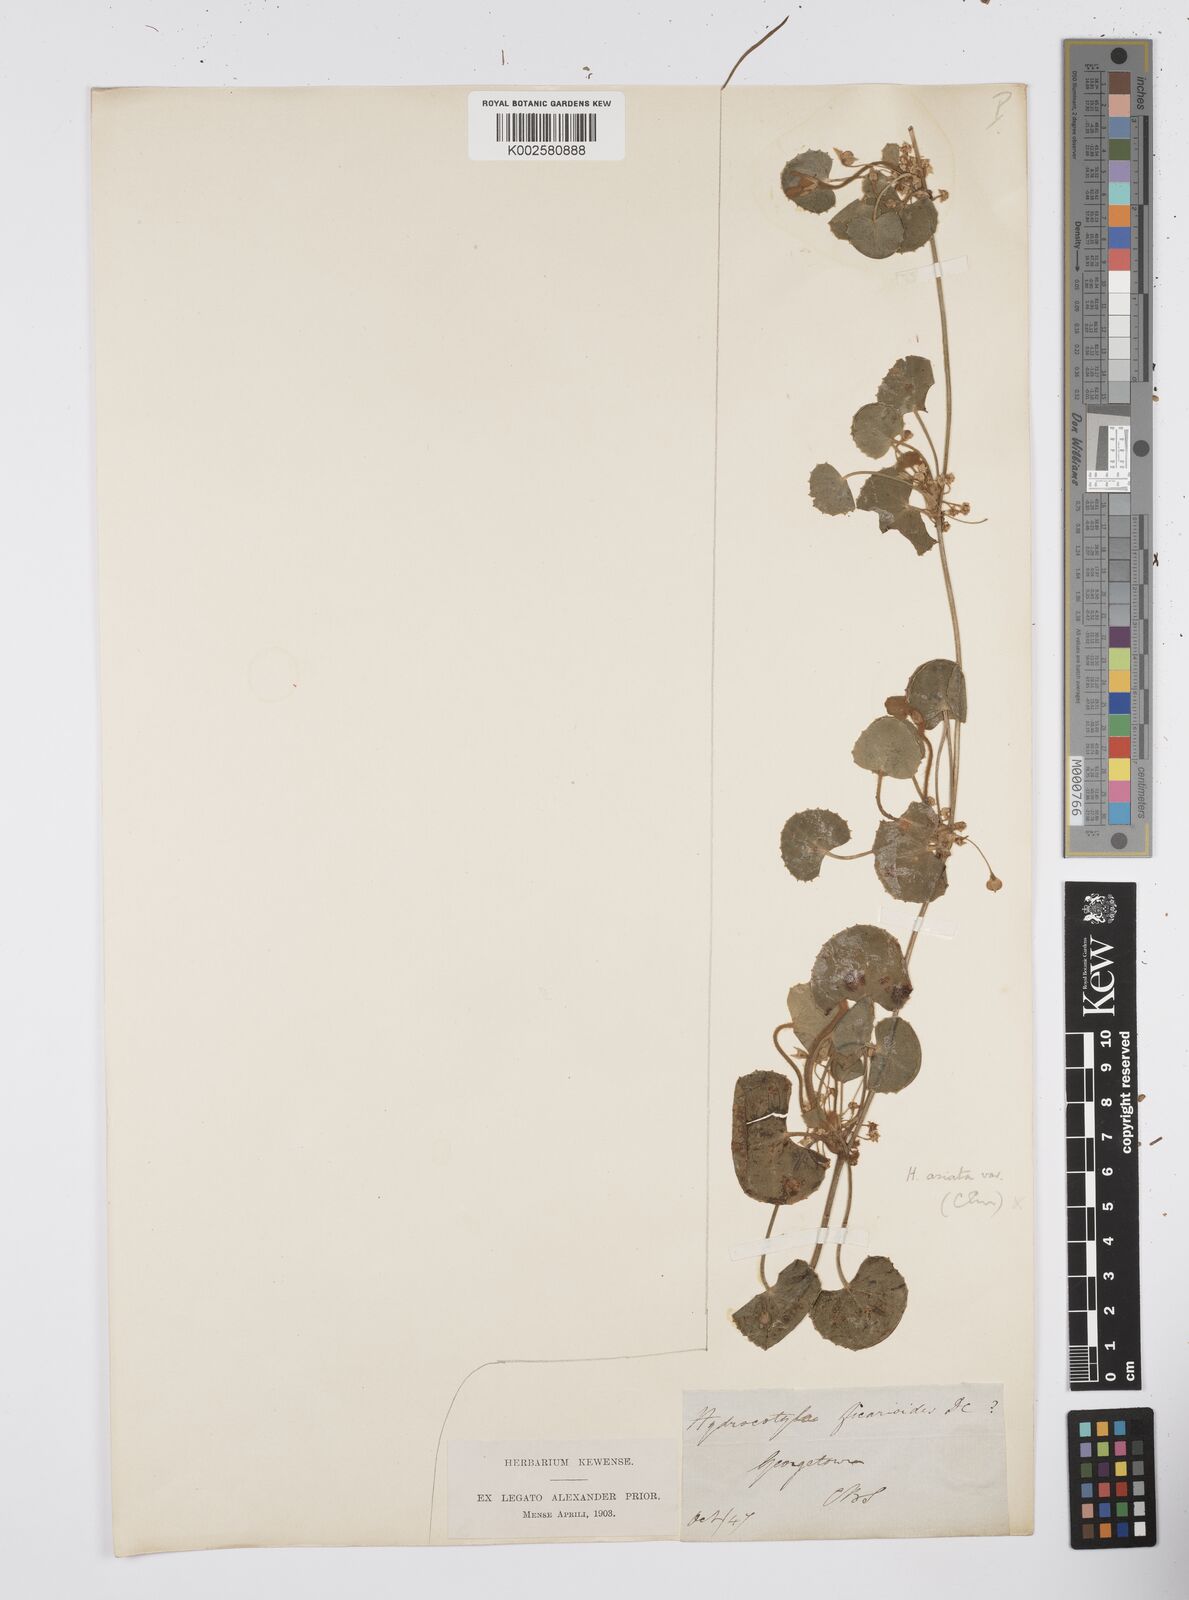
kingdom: Plantae
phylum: Tracheophyta
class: Magnoliopsida
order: Apiales
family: Apiaceae
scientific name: Apiaceae
